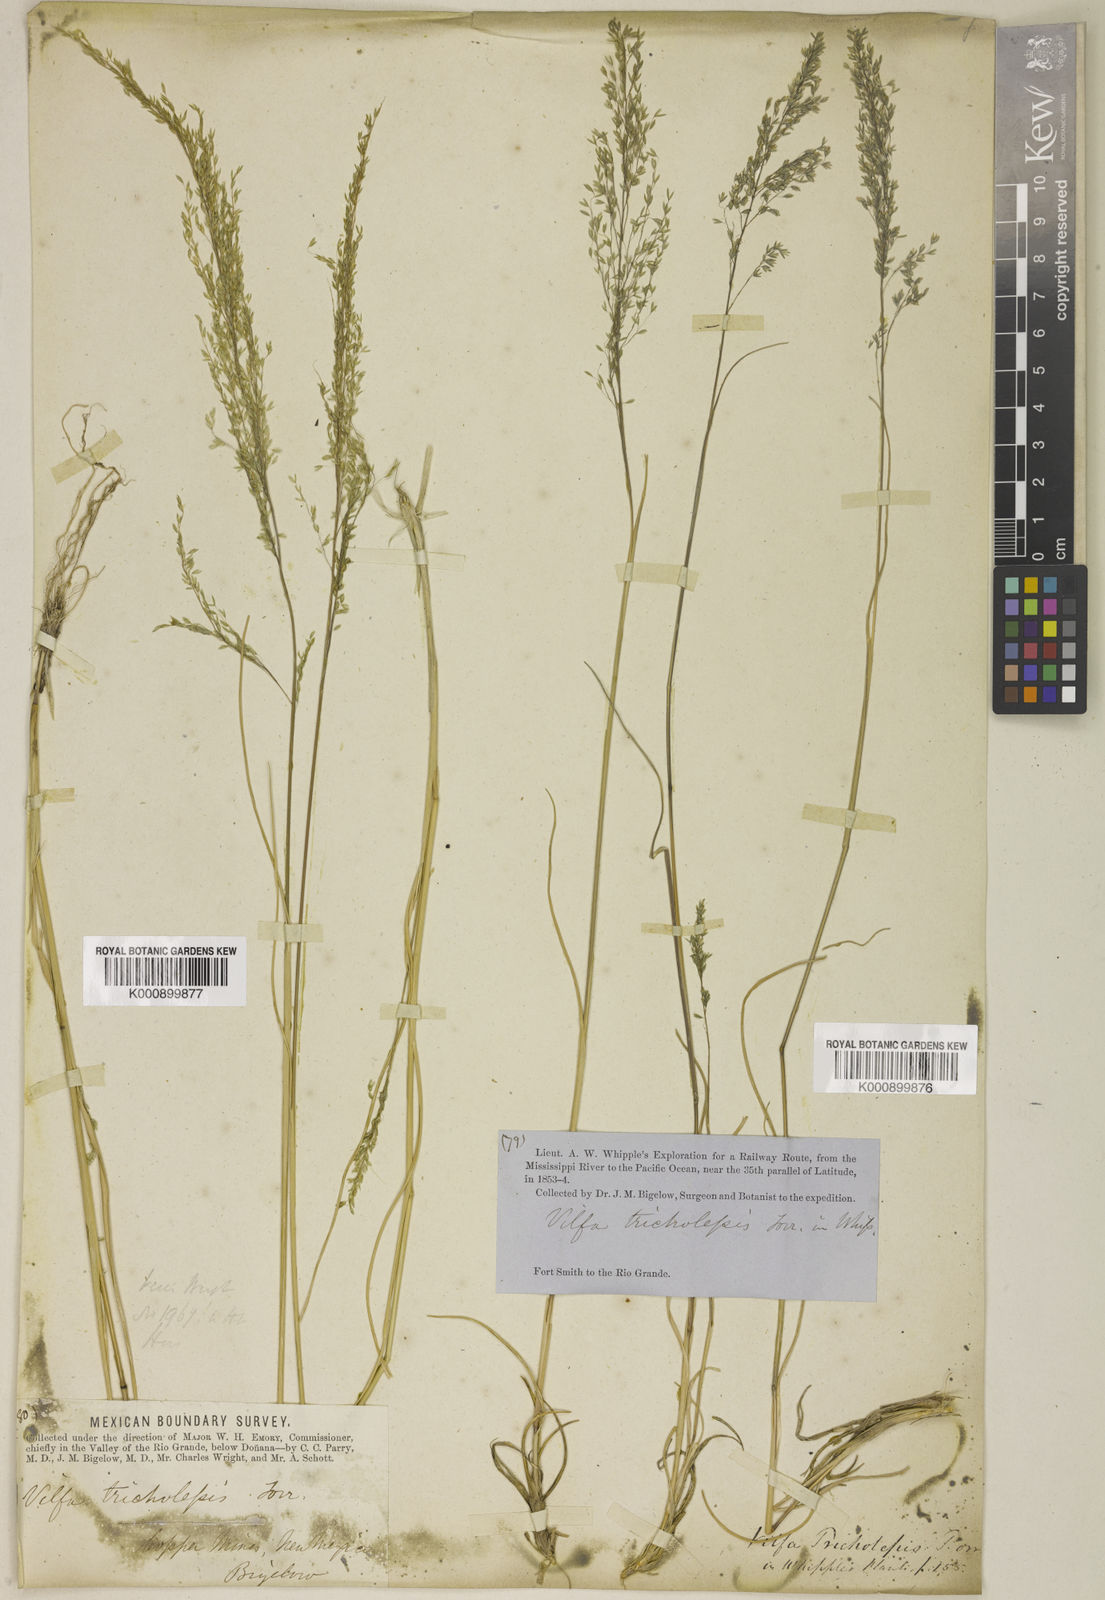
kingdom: Plantae
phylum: Tracheophyta
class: Liliopsida
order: Poales
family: Poaceae
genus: Muhlenbergia
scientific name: Muhlenbergia tricholepis
